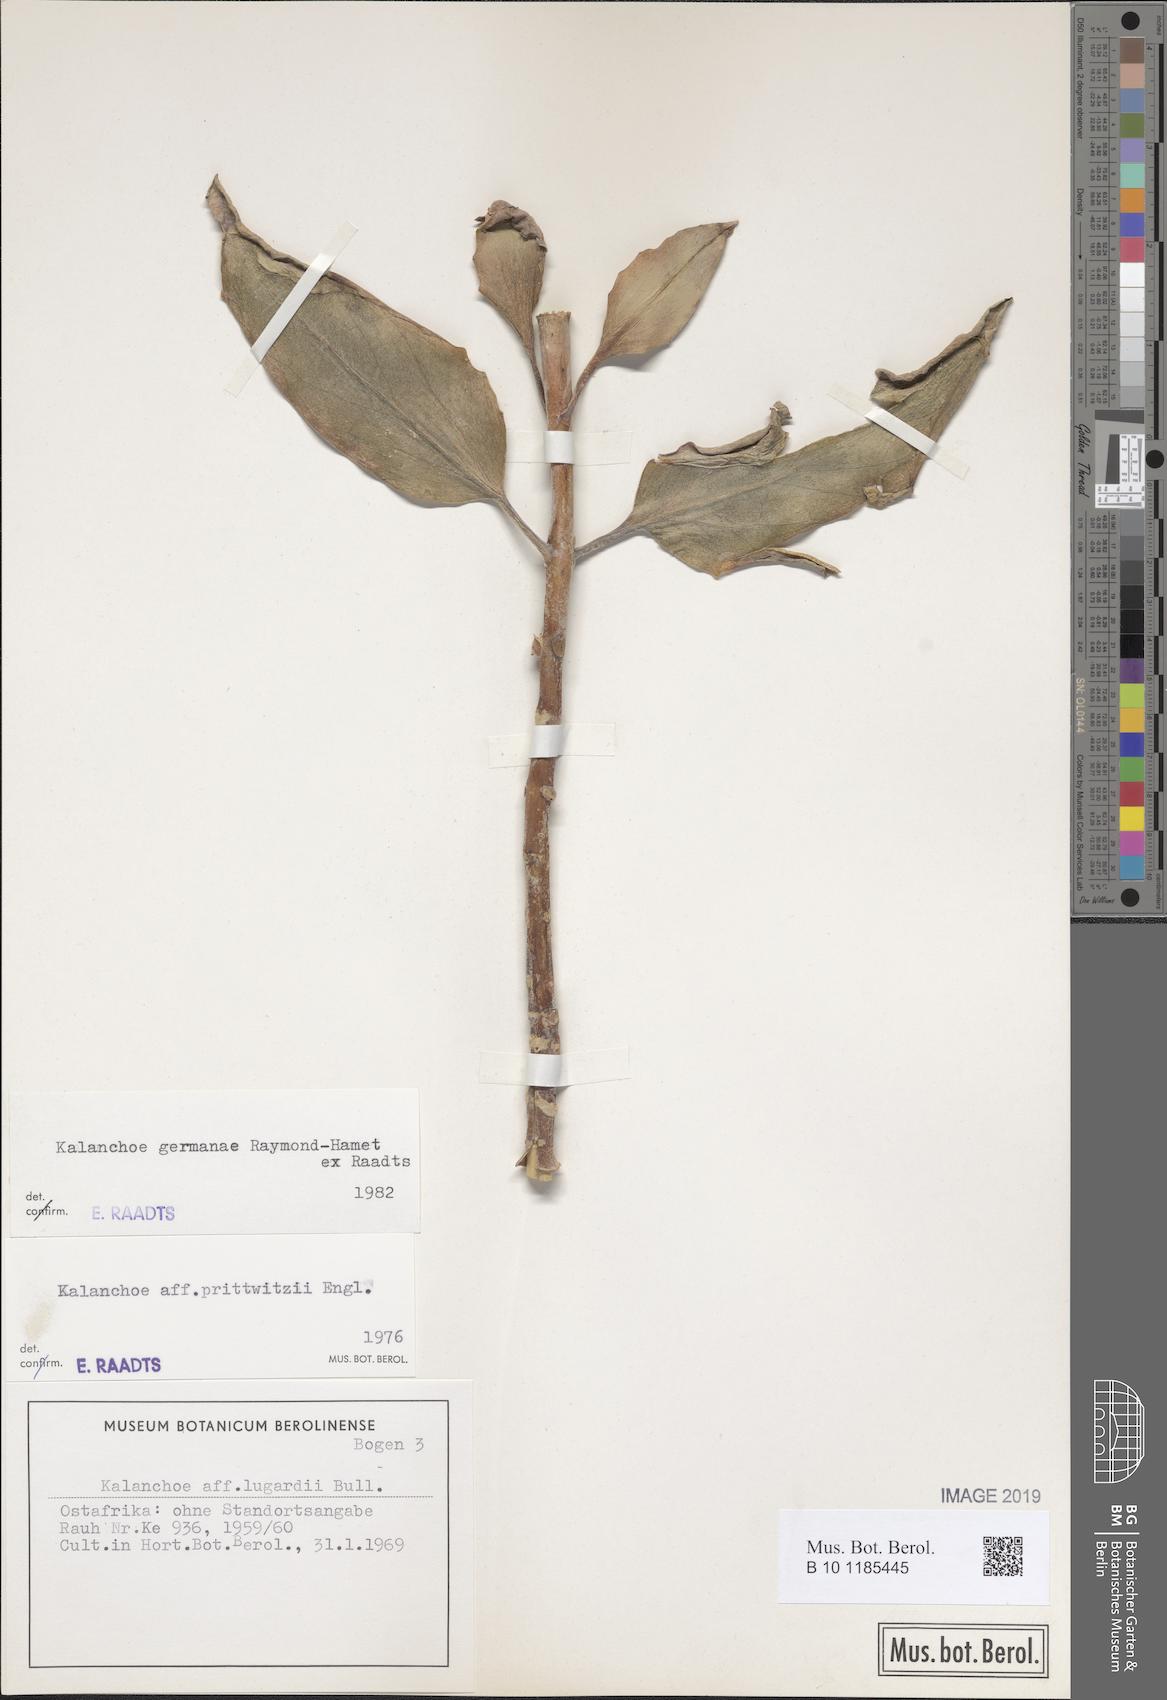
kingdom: Plantae
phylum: Tracheophyta
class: Magnoliopsida
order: Saxifragales
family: Crassulaceae
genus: Kalanchoe
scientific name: Kalanchoe germanae
